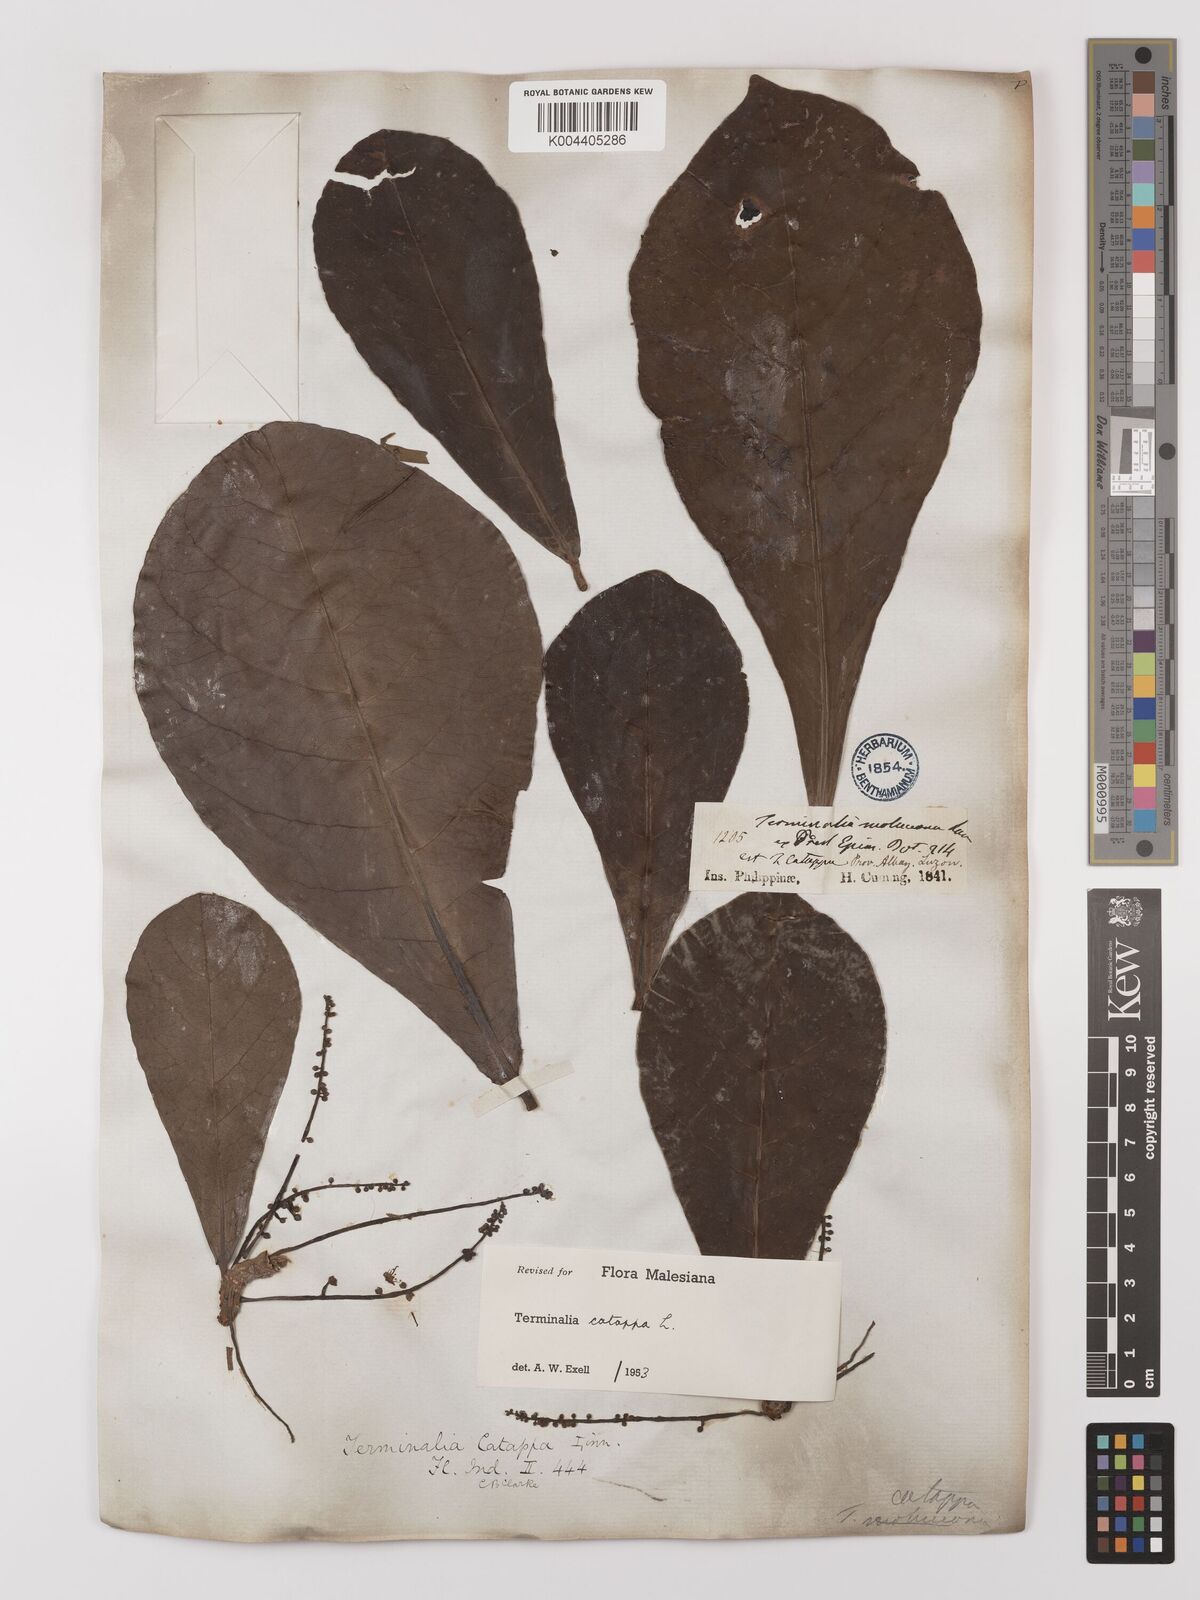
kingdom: Plantae
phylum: Tracheophyta
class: Magnoliopsida
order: Myrtales
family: Combretaceae
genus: Terminalia
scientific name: Terminalia catappa
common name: Tropical almond
